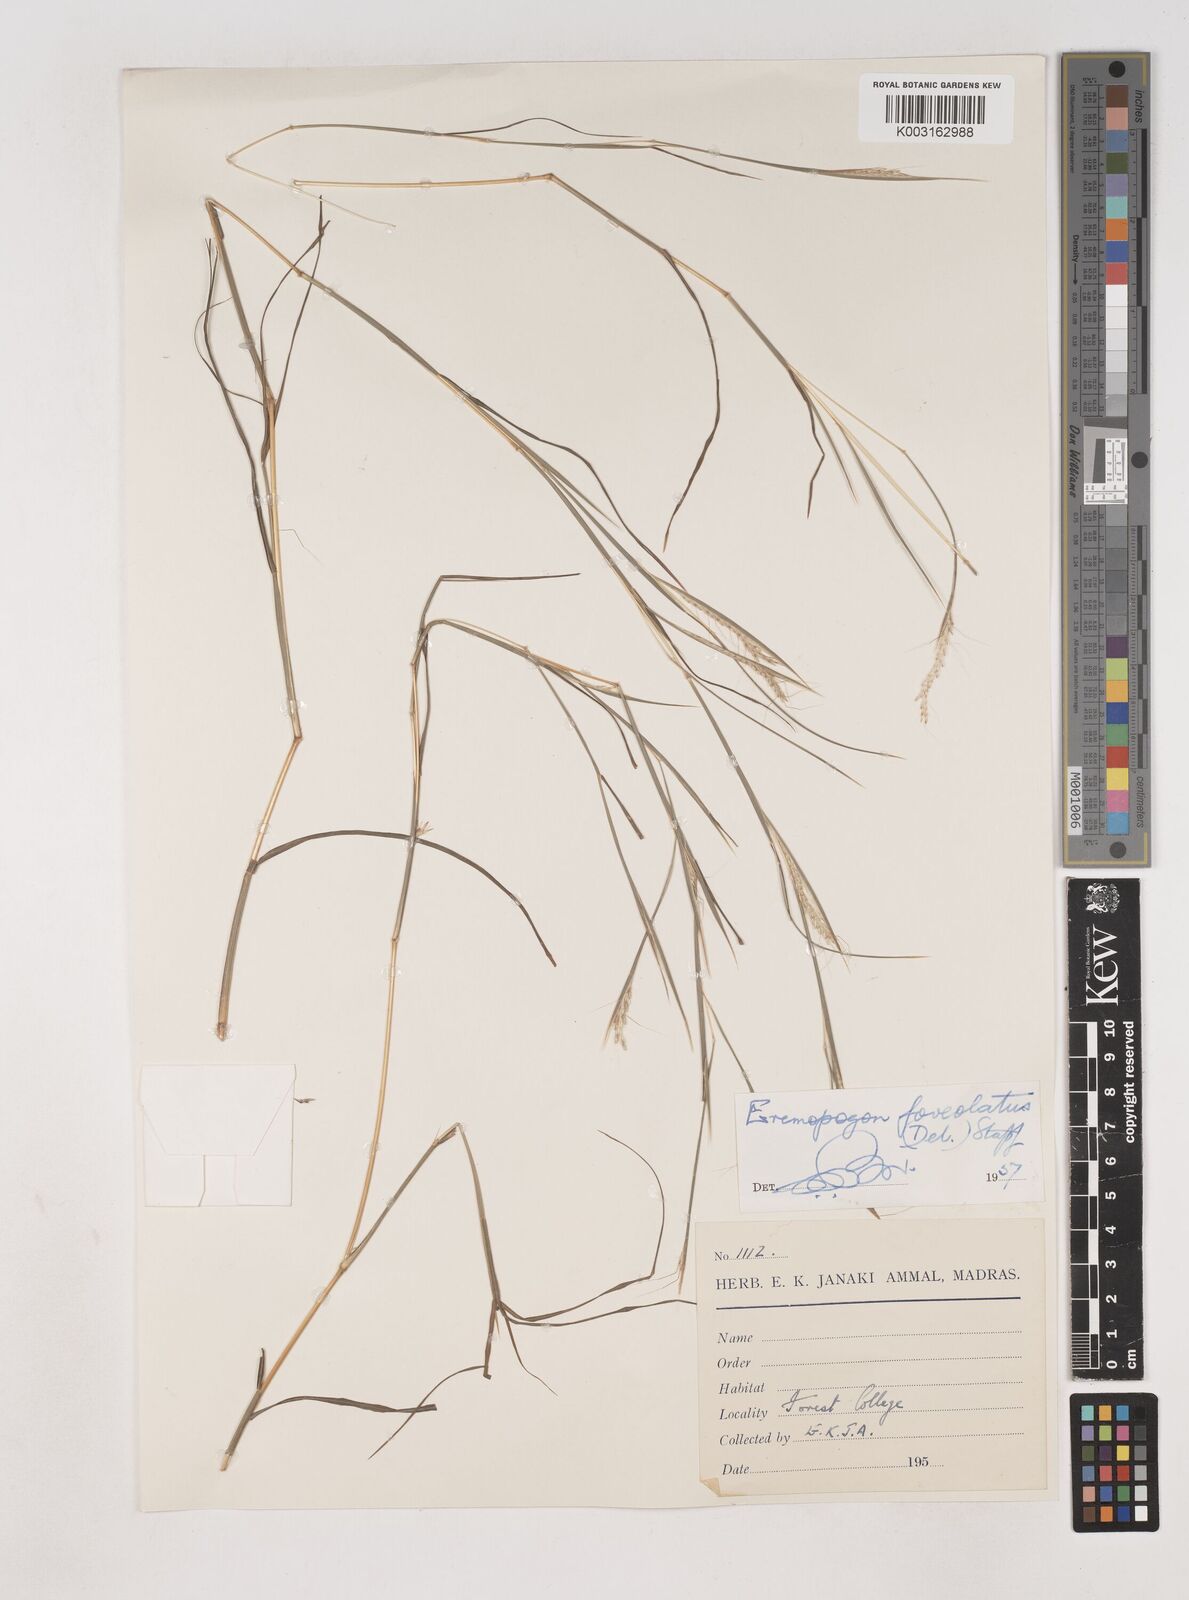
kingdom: Plantae
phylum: Tracheophyta
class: Liliopsida
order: Poales
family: Poaceae
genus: Dichanthium
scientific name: Dichanthium foveolatum
